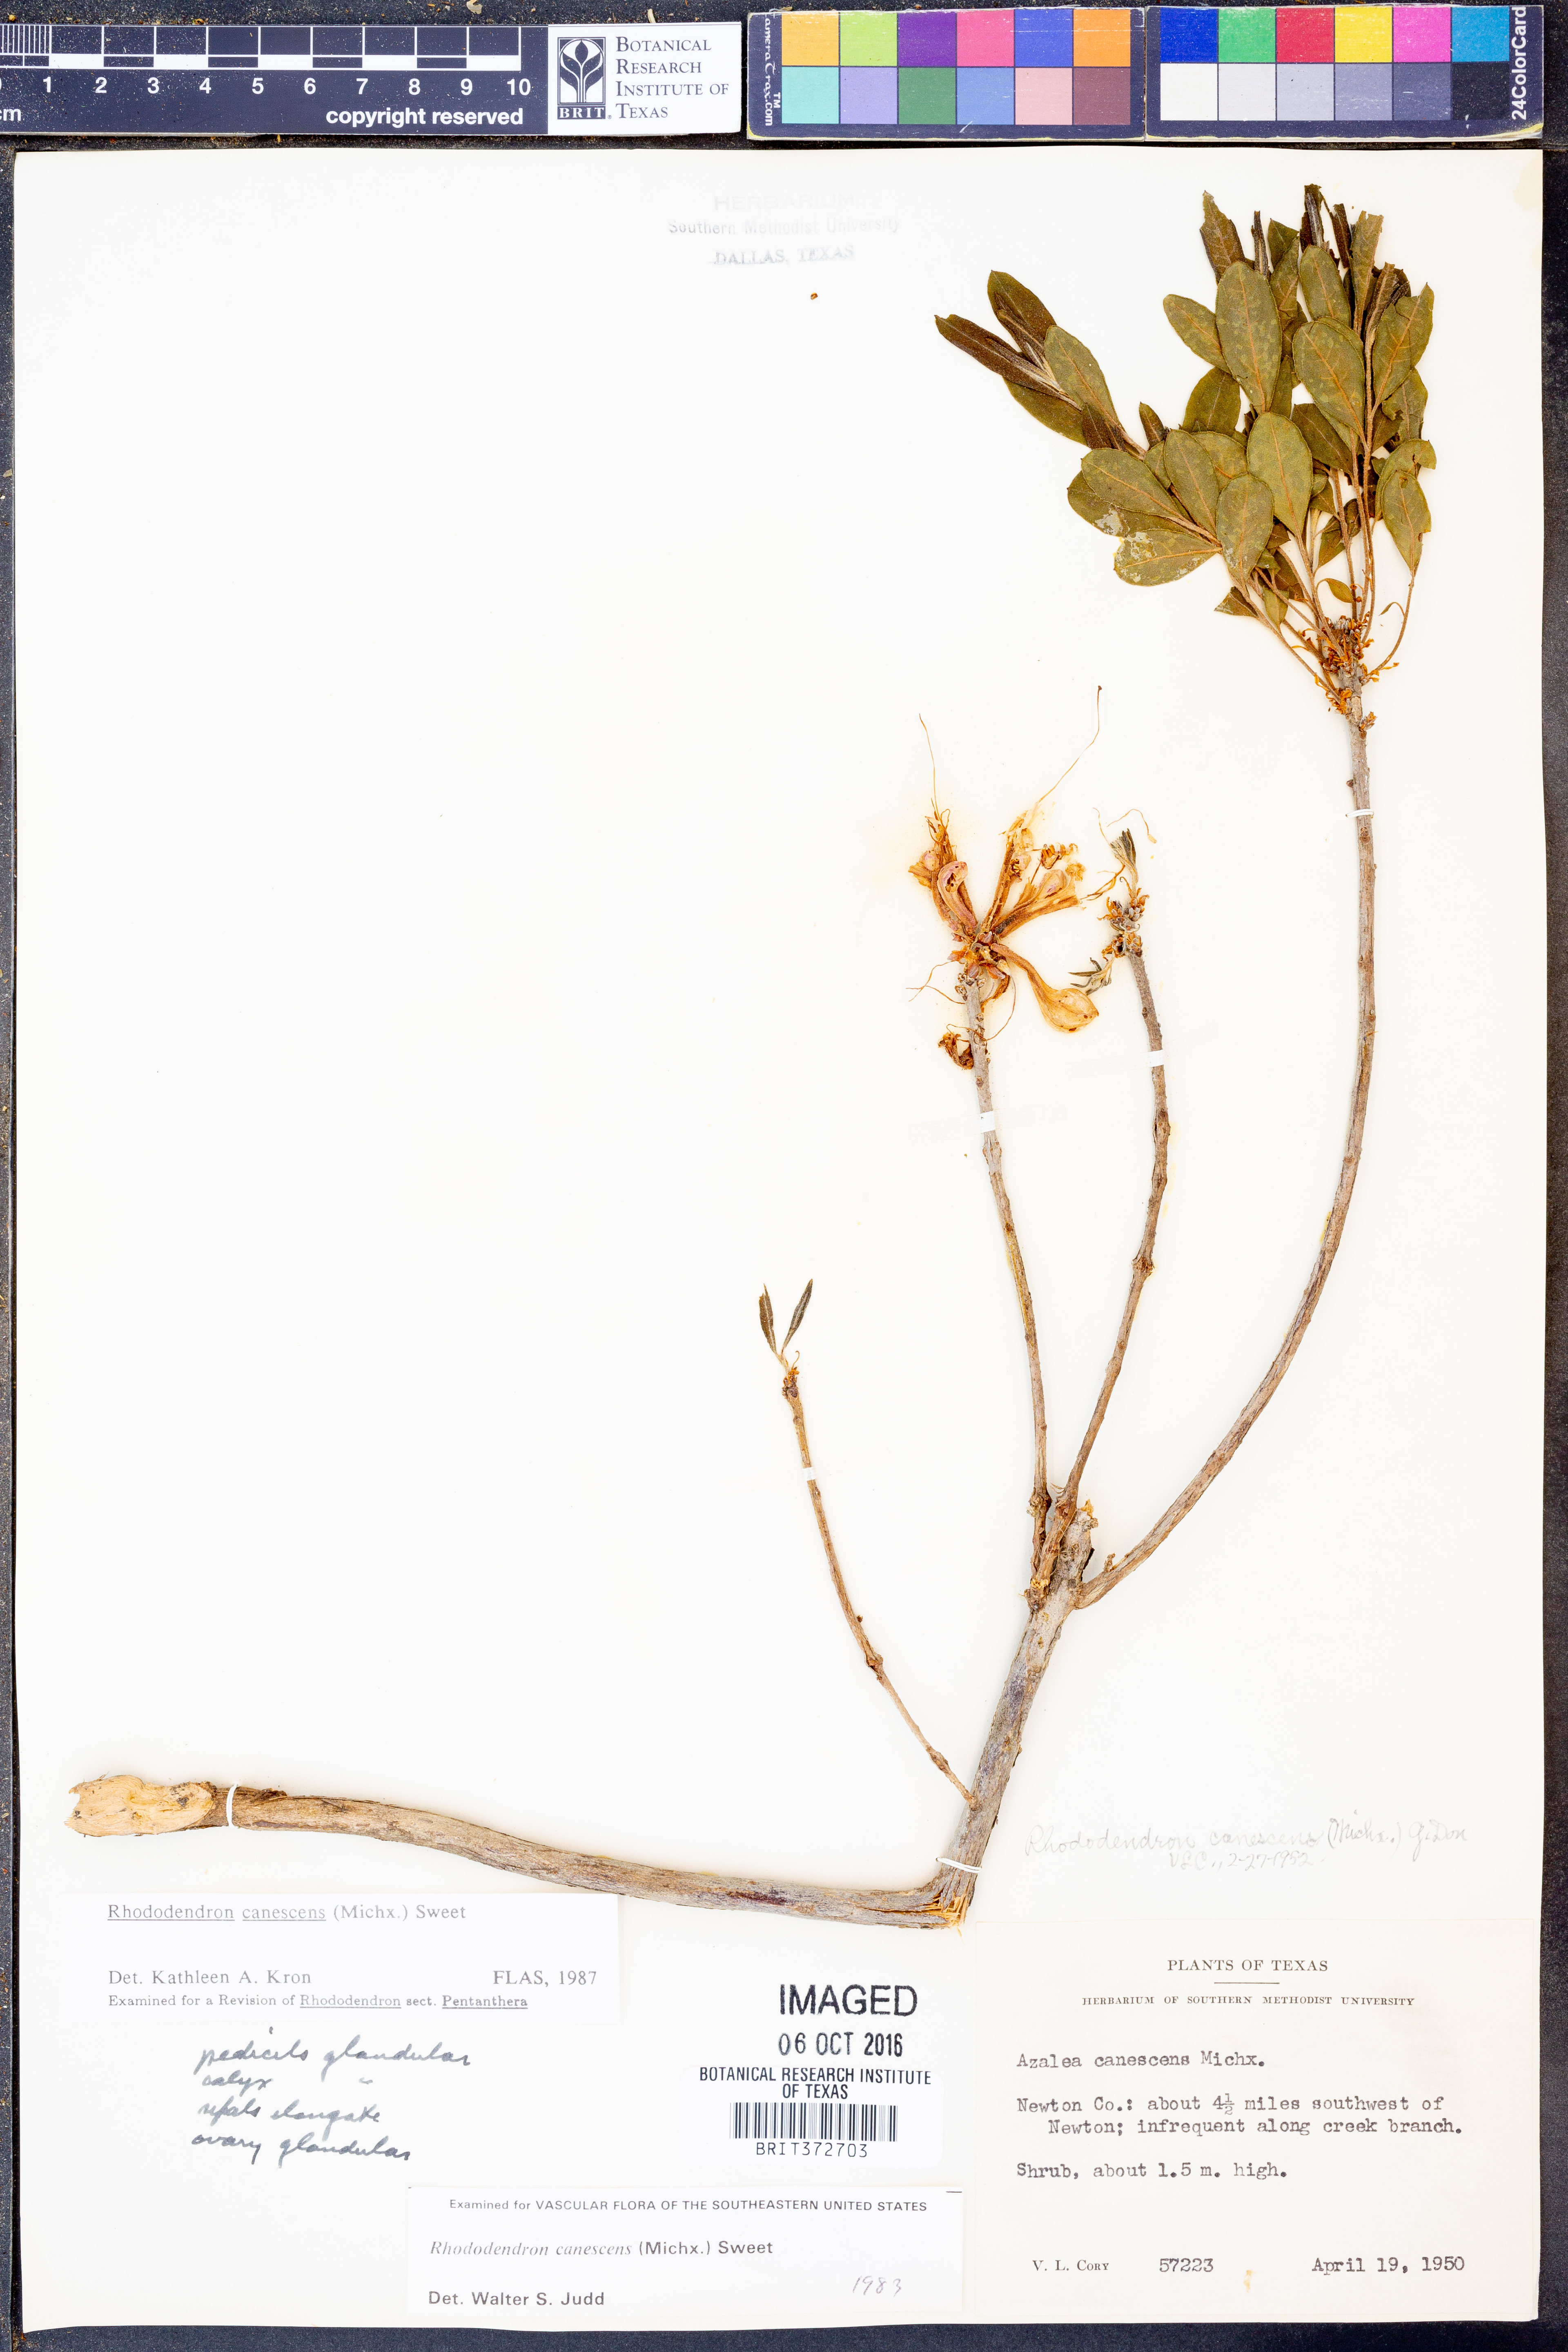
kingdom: Plantae
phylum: Tracheophyta
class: Magnoliopsida
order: Ericales
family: Ericaceae
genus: Rhododendron
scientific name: Rhododendron canescens
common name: Mountain azalea
